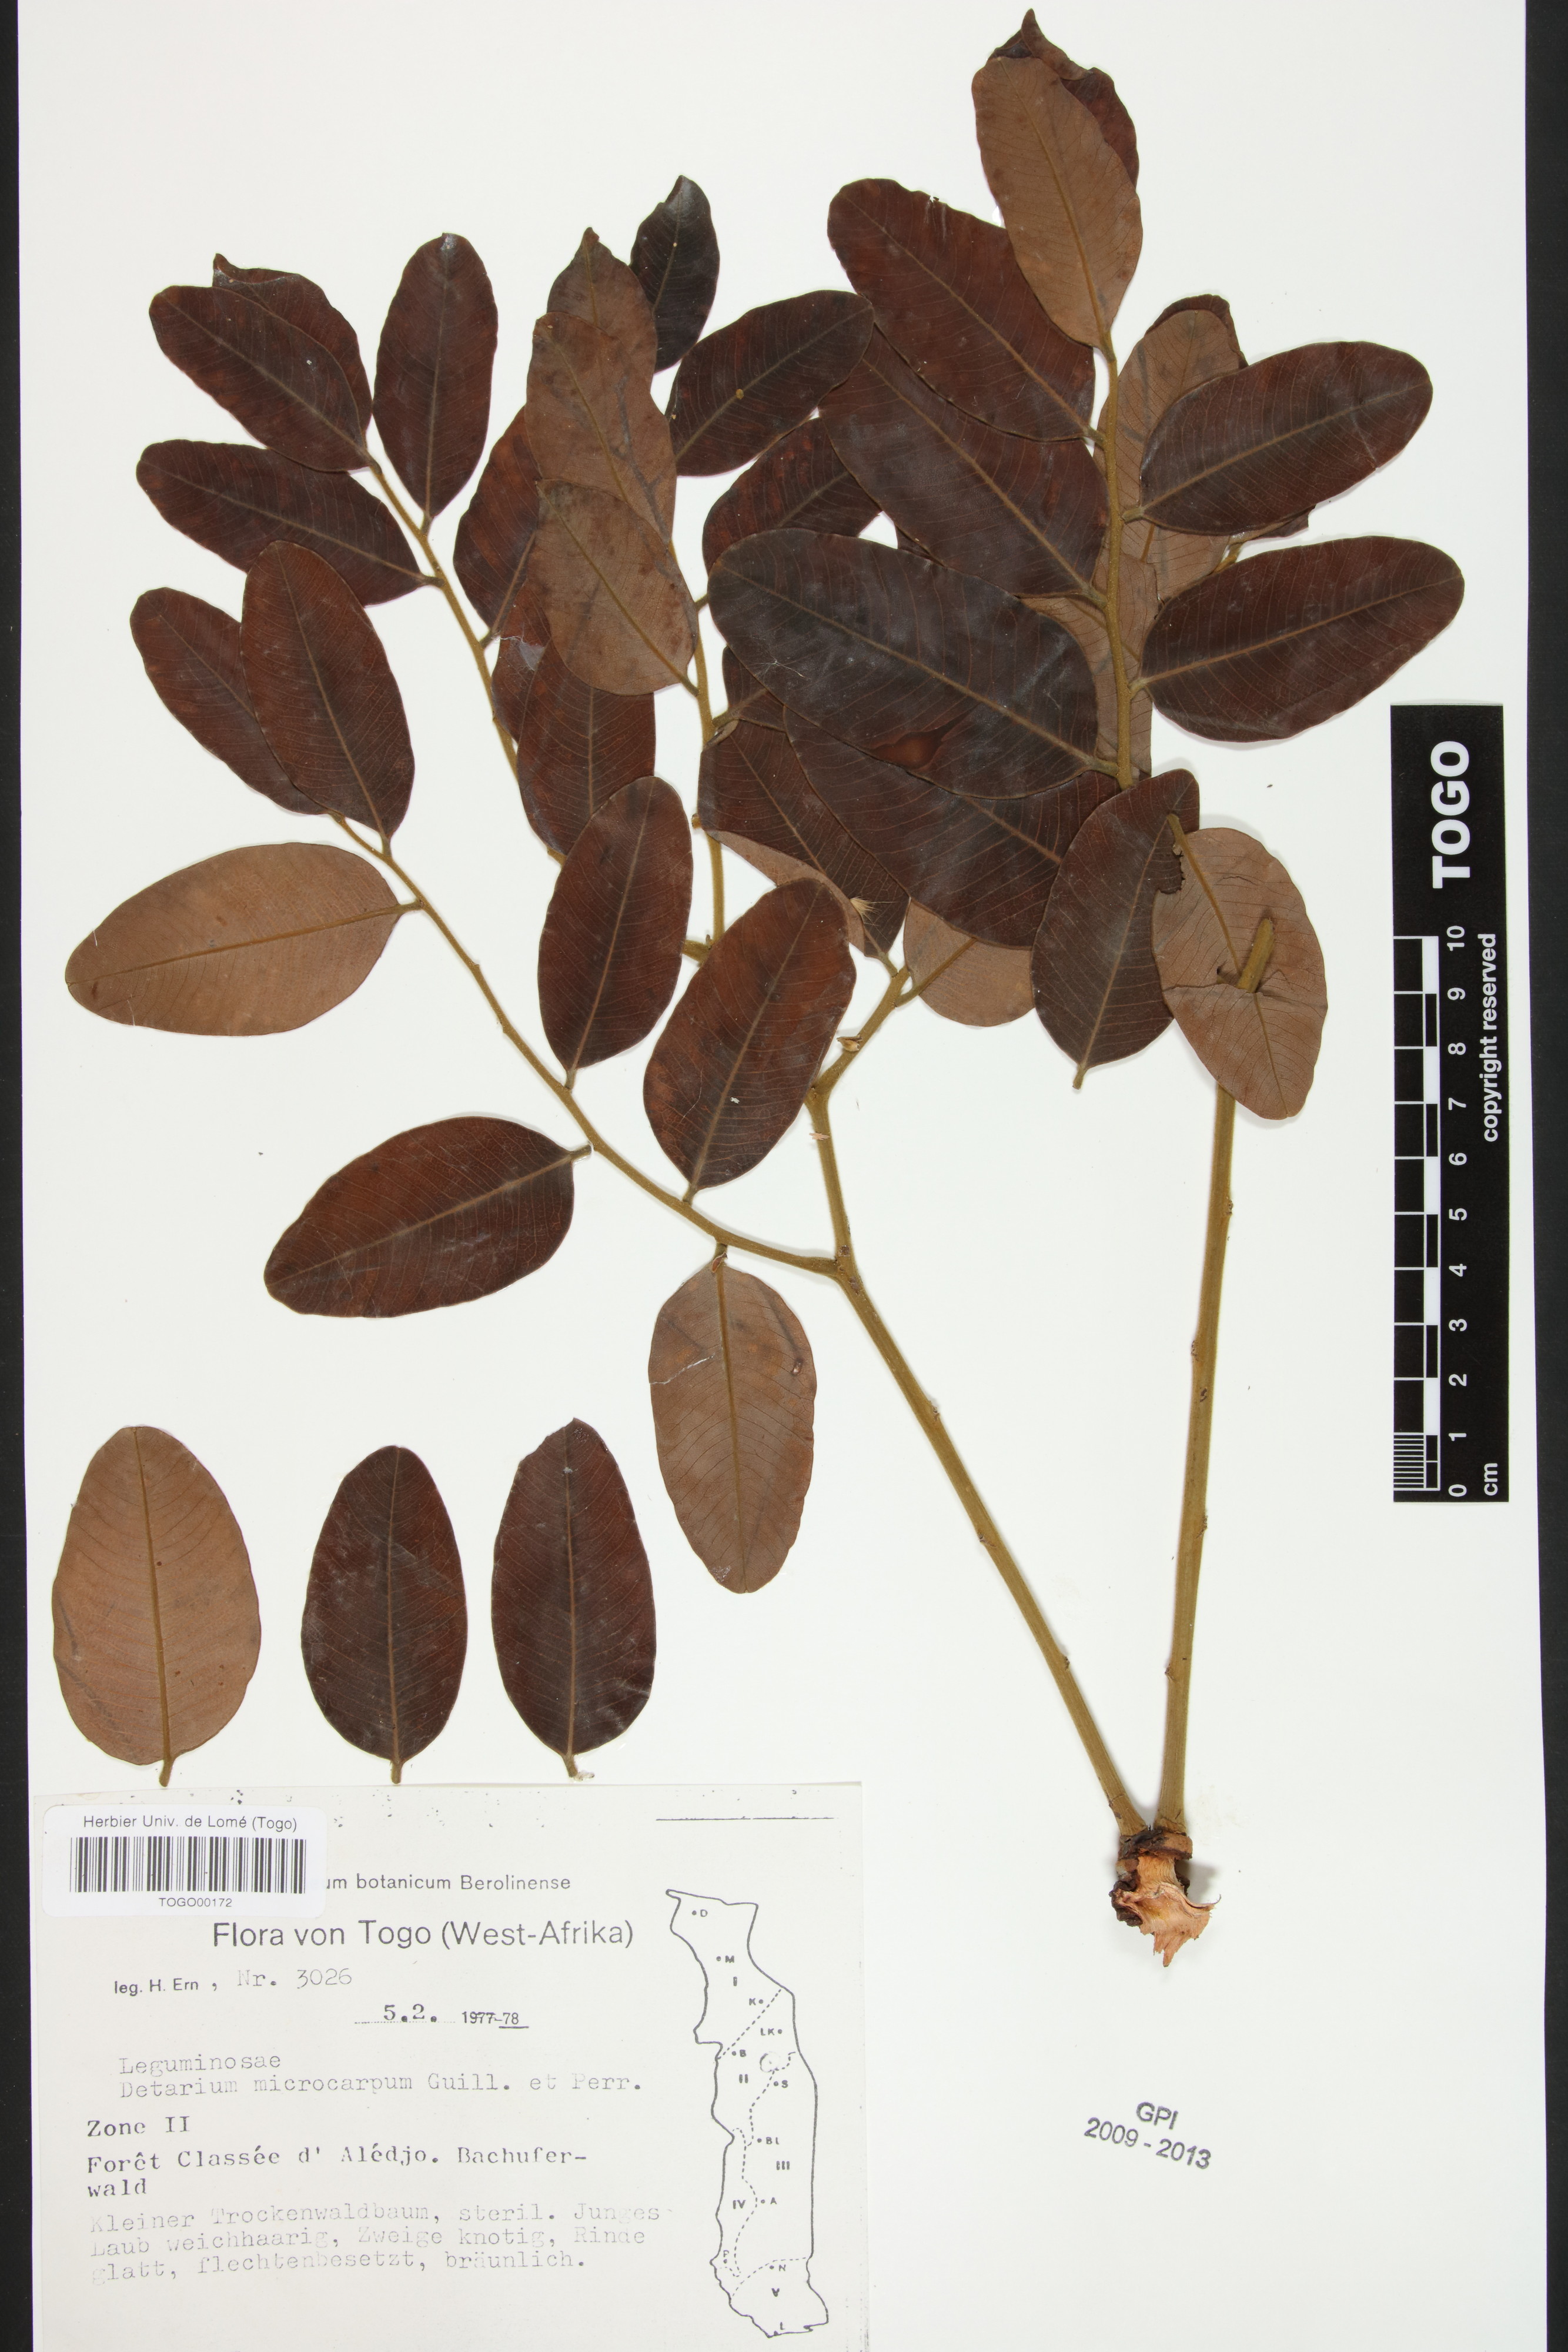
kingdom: Plantae
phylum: Tracheophyta
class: Magnoliopsida
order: Fabales
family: Fabaceae
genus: Detarium
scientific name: Detarium microcarpum
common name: Sweet dattock
